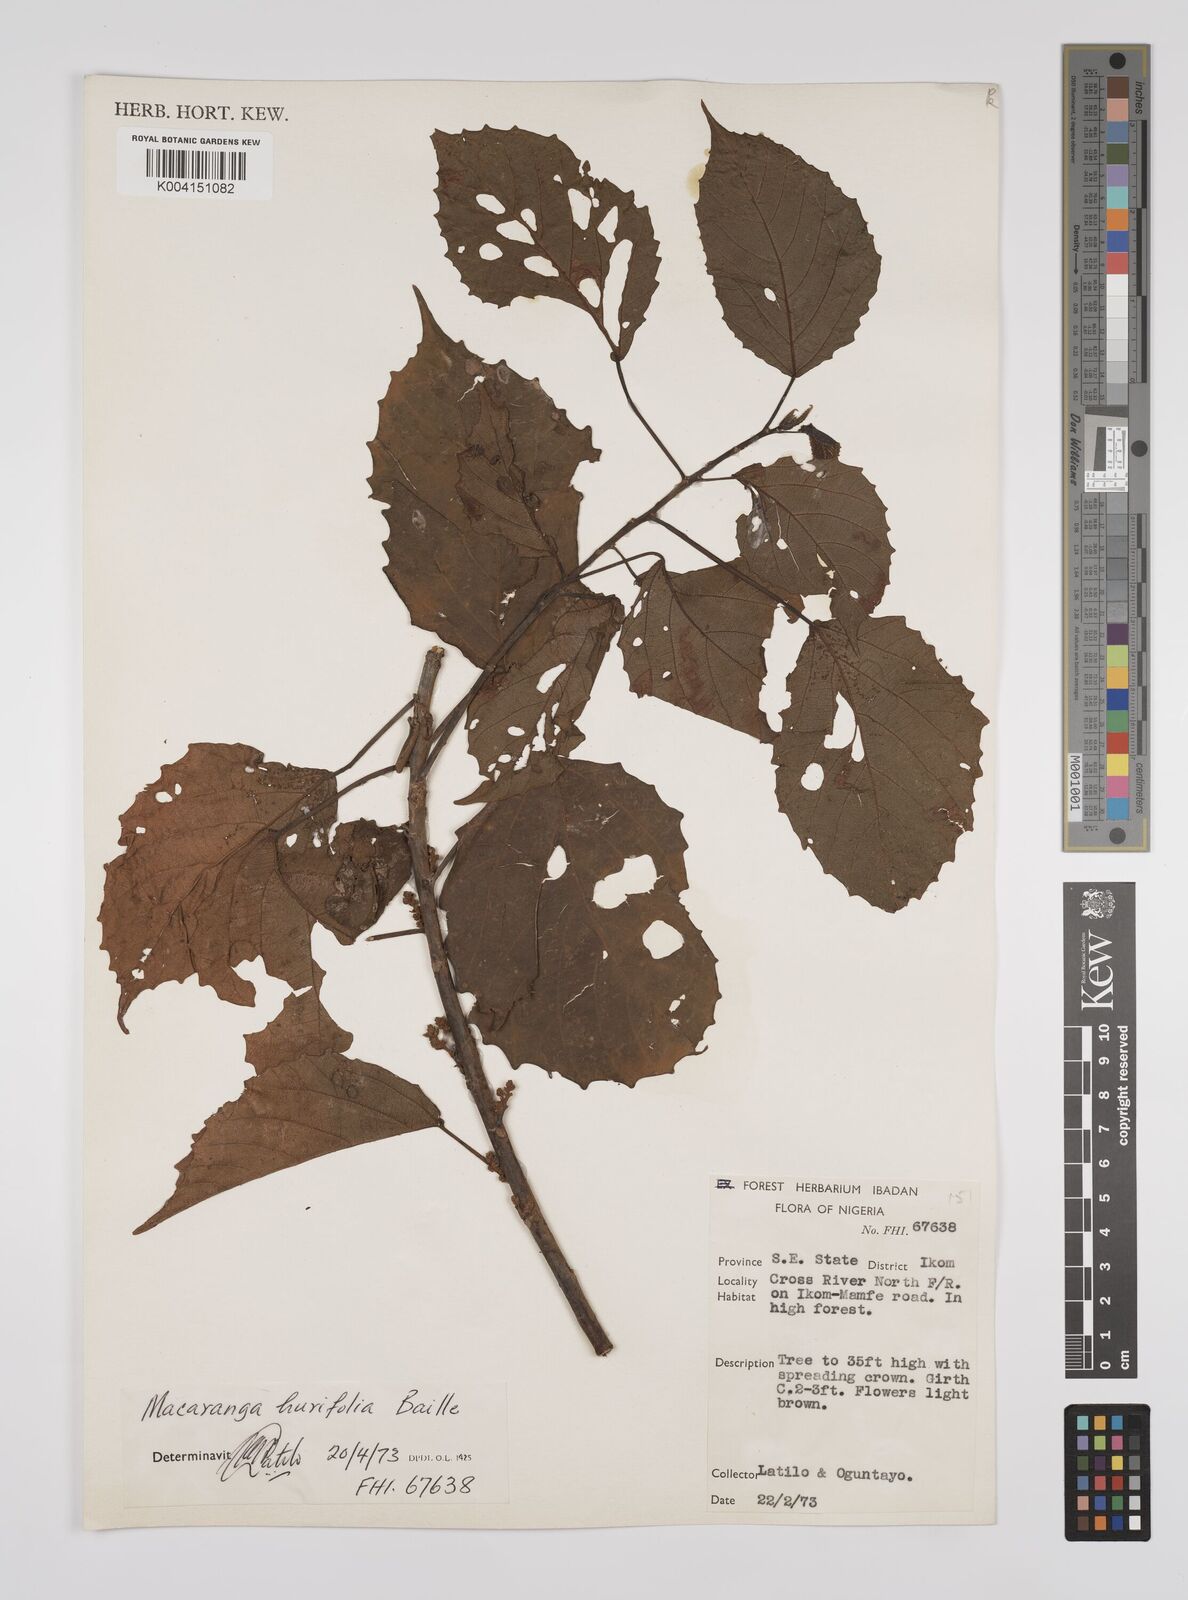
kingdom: Plantae
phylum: Tracheophyta
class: Magnoliopsida
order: Malpighiales
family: Euphorbiaceae
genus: Macaranga
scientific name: Macaranga hurifolia
